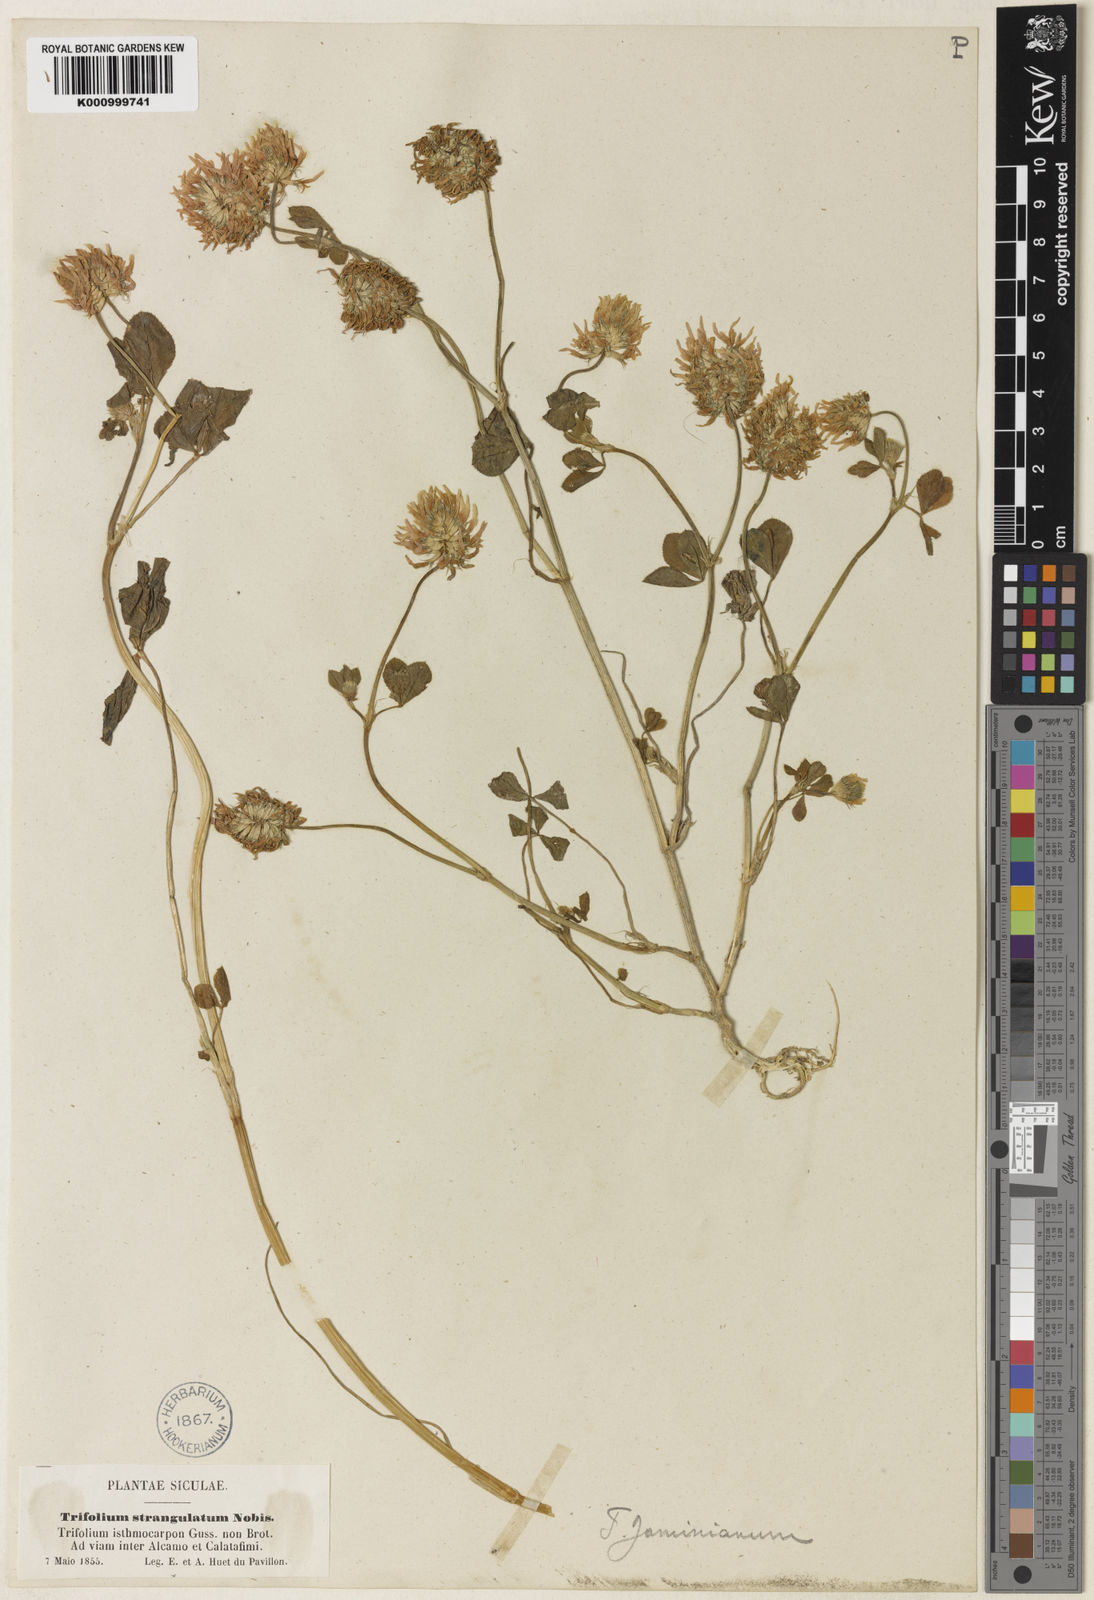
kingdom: Plantae
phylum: Tracheophyta
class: Magnoliopsida
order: Fabales
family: Fabaceae
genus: Trifolium
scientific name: Trifolium isthmocarpum
